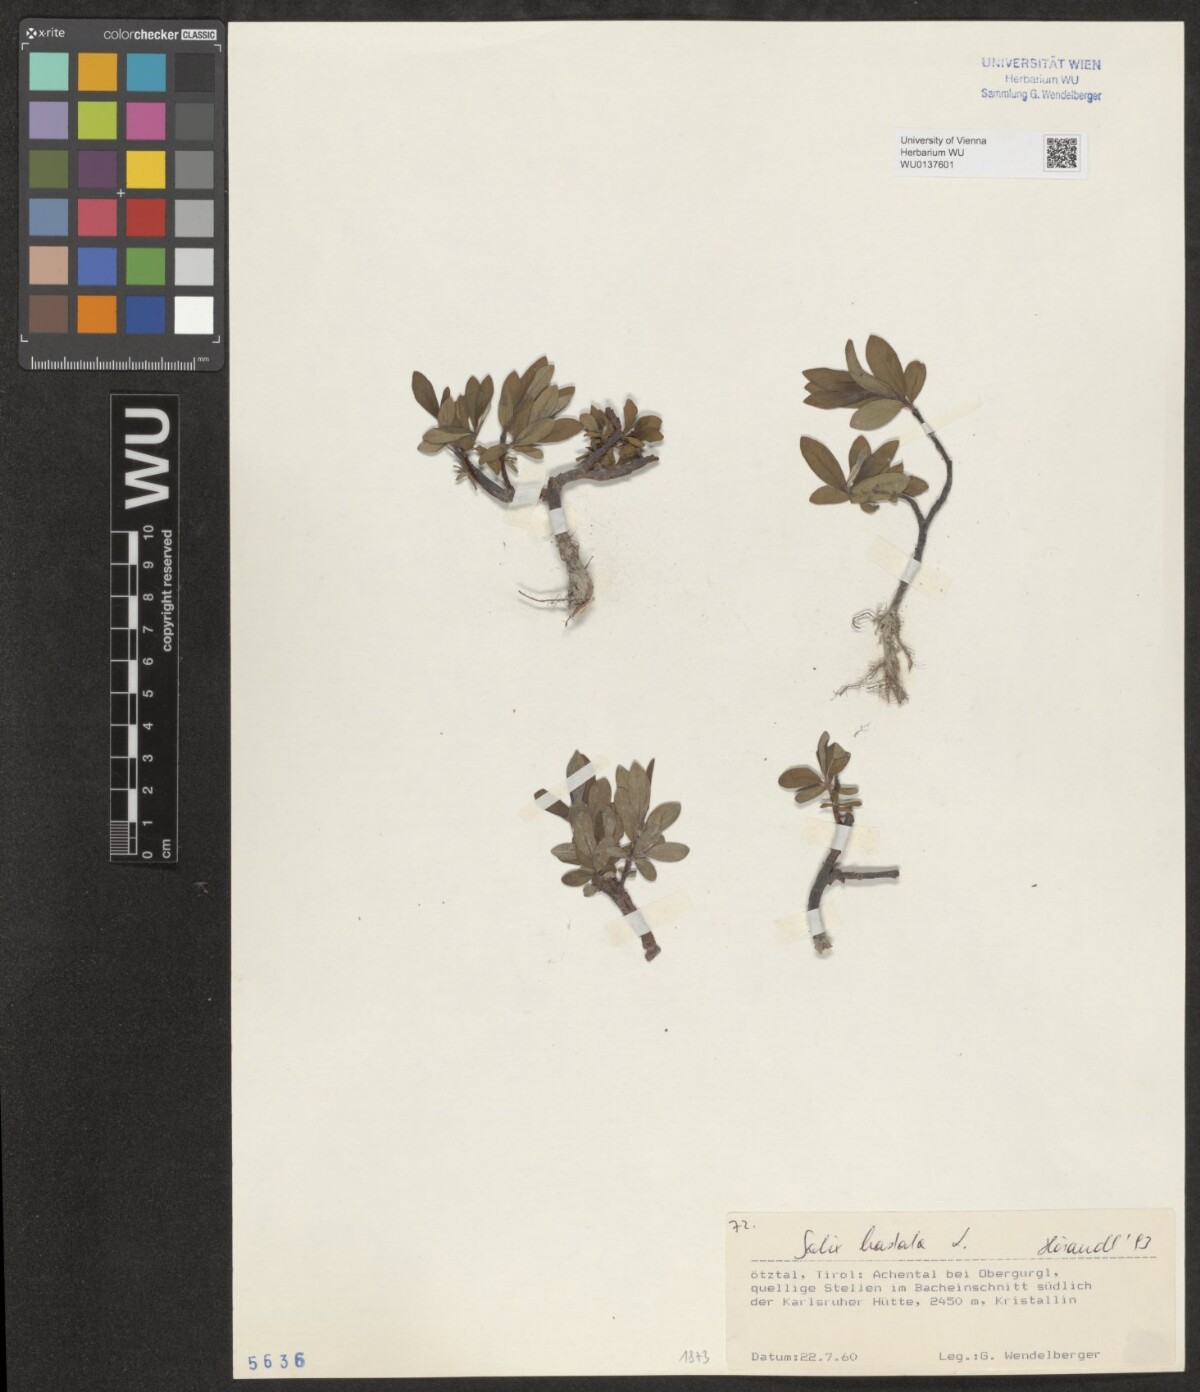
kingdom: Plantae
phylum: Tracheophyta
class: Magnoliopsida
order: Malpighiales
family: Salicaceae
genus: Salix
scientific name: Salix hastata
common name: Halberd willow
